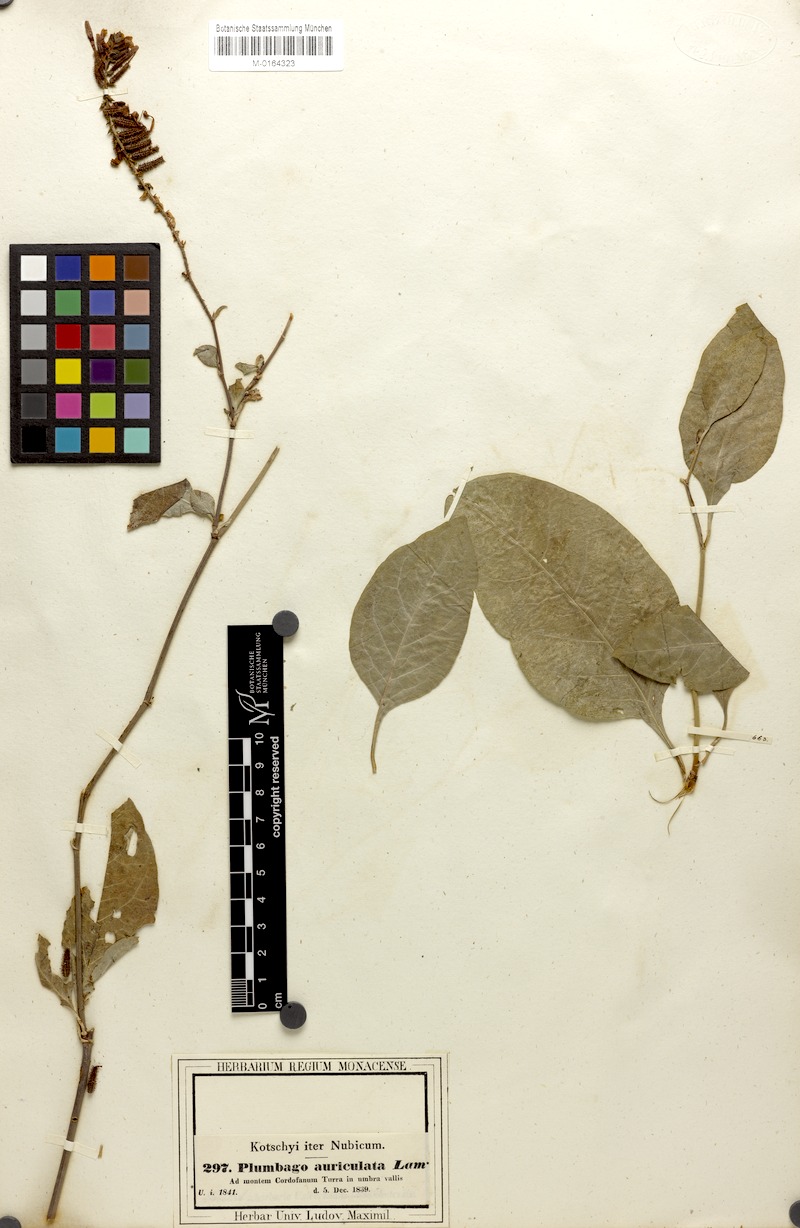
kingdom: Plantae
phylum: Tracheophyta
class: Magnoliopsida
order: Caryophyllales
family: Plumbaginaceae
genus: Plumbago
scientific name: Plumbago zeylanica
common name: Doctorbush
